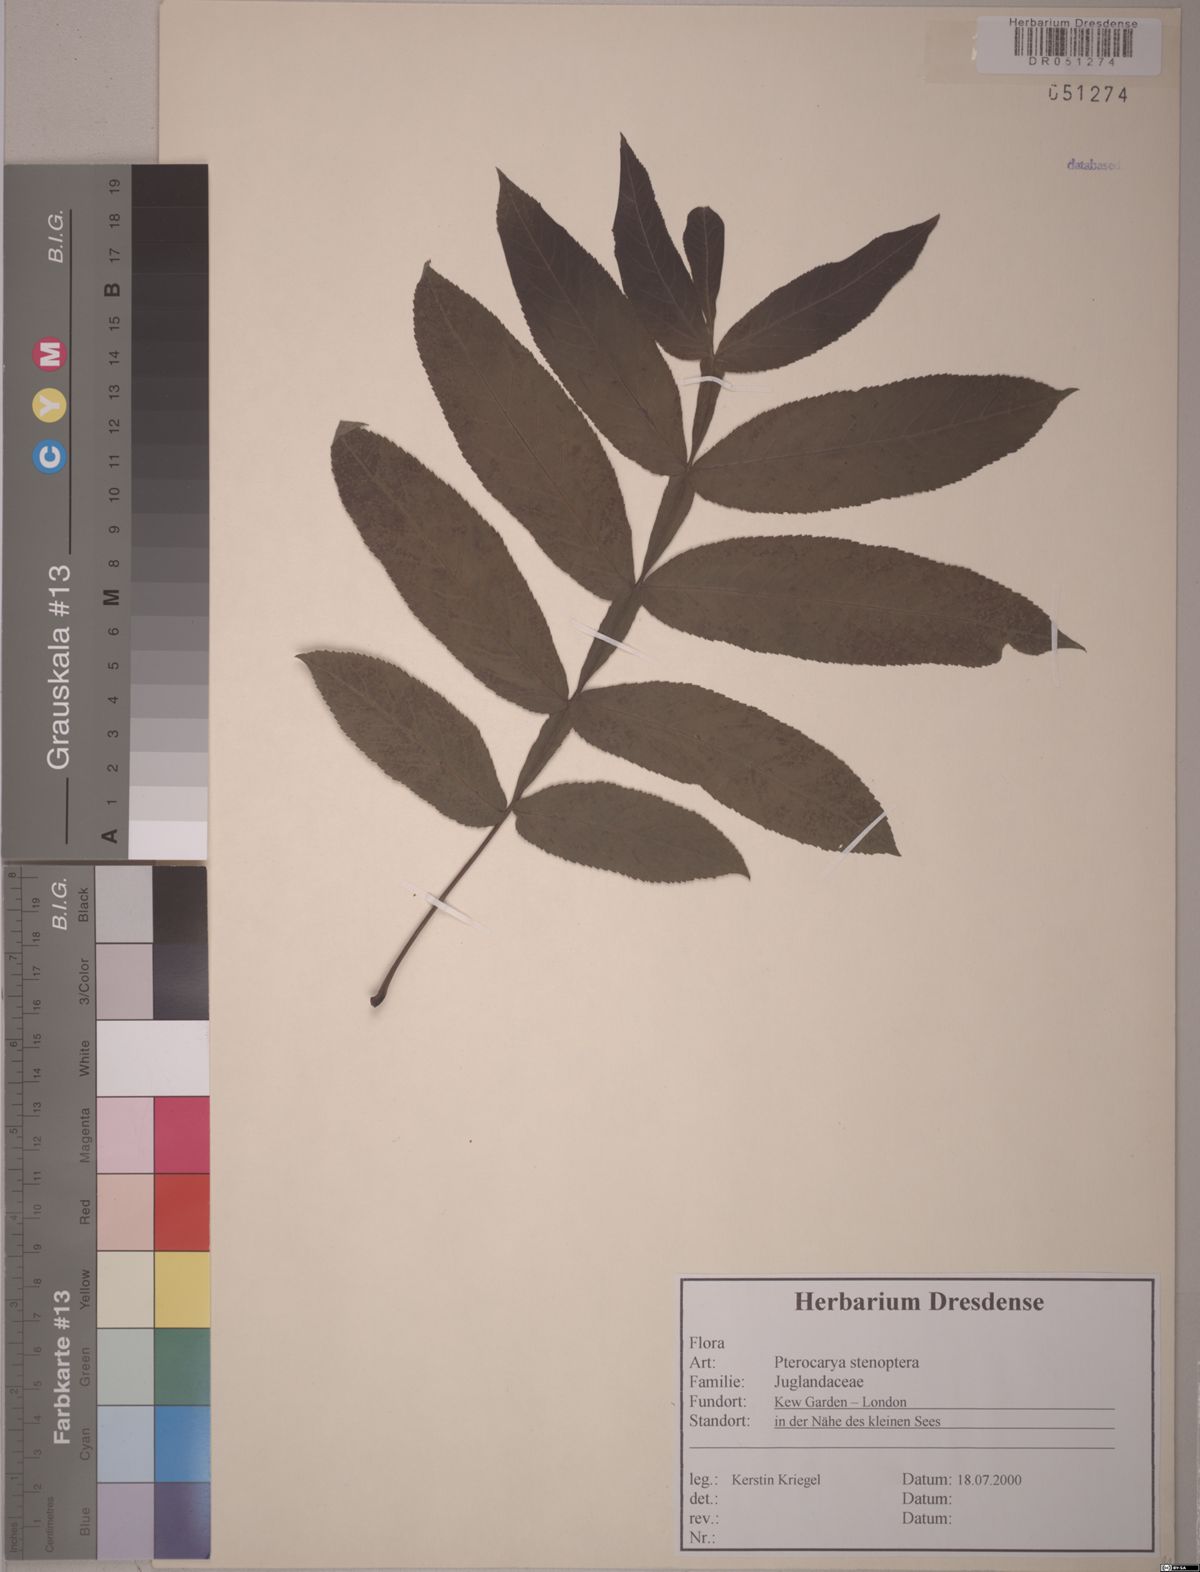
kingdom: Plantae
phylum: Tracheophyta
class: Magnoliopsida
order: Fagales
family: Juglandaceae
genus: Pterocarya
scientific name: Pterocarya stenoptera
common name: Chinese wingnut
